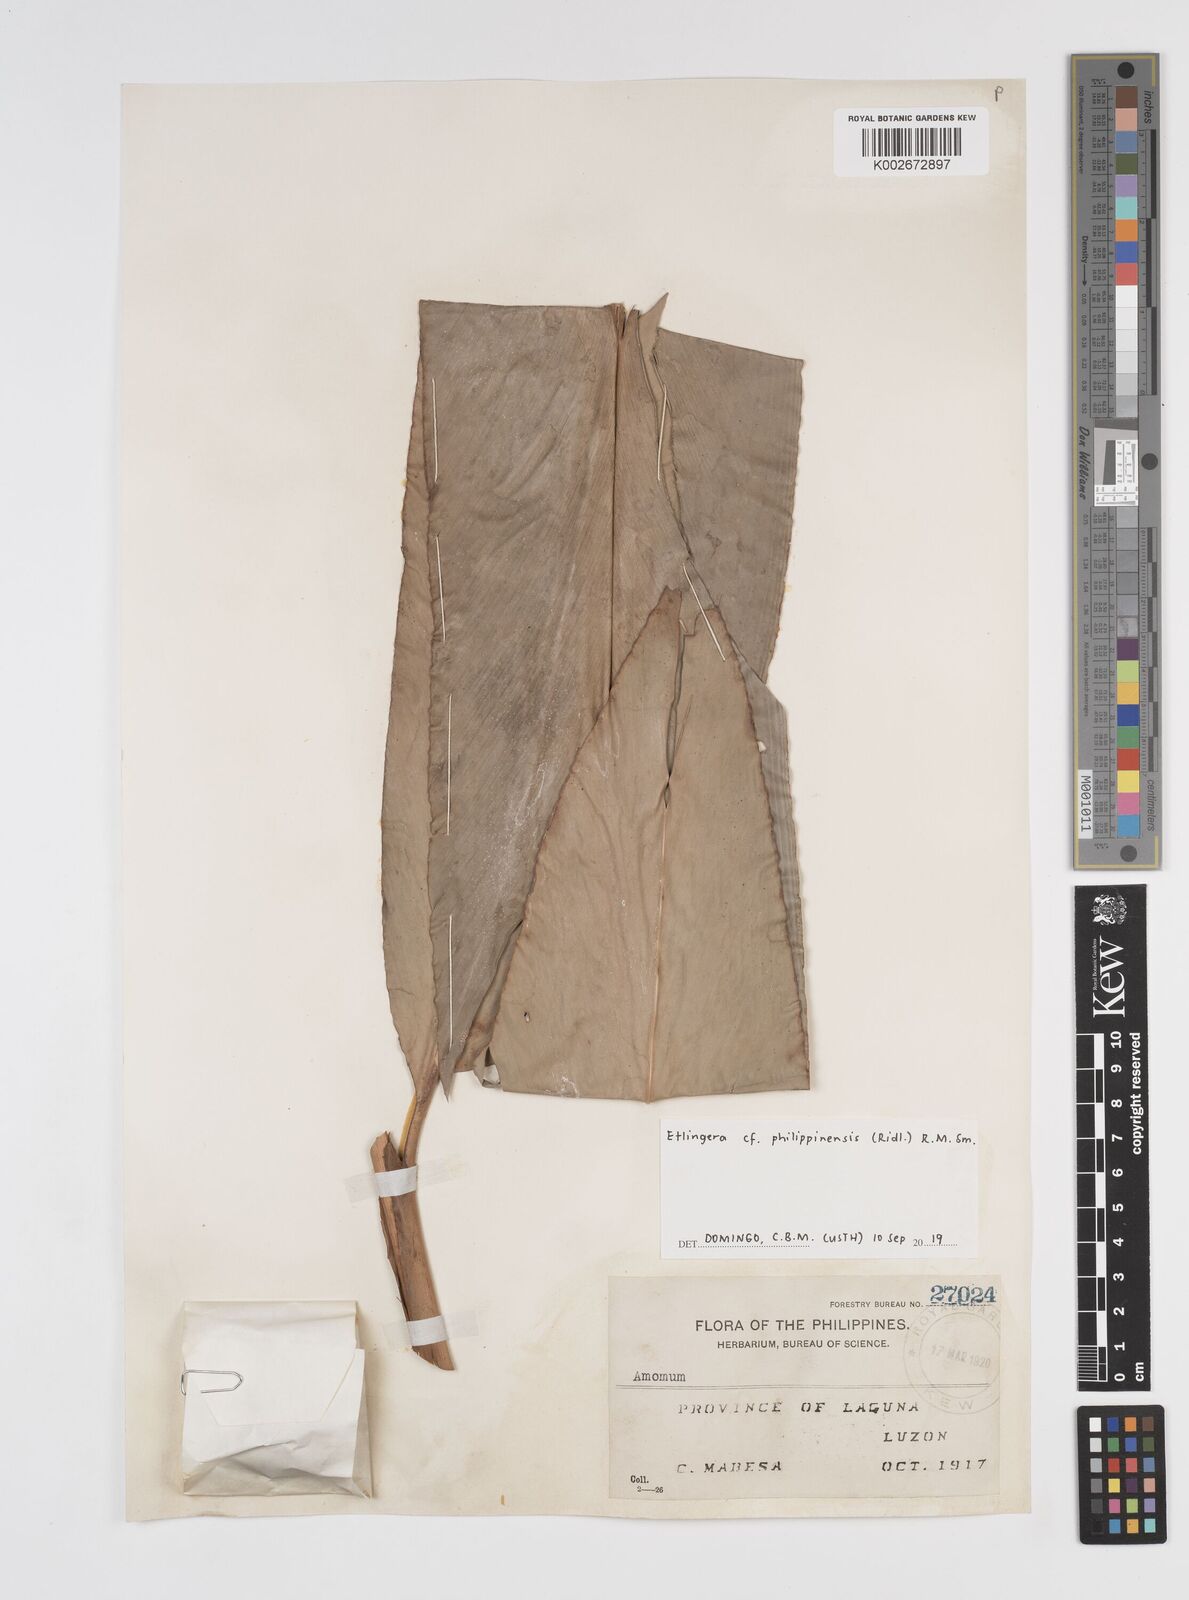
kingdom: Plantae
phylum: Tracheophyta
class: Liliopsida
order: Zingiberales
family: Zingiberaceae
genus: Etlingera
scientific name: Etlingera philippinensis
